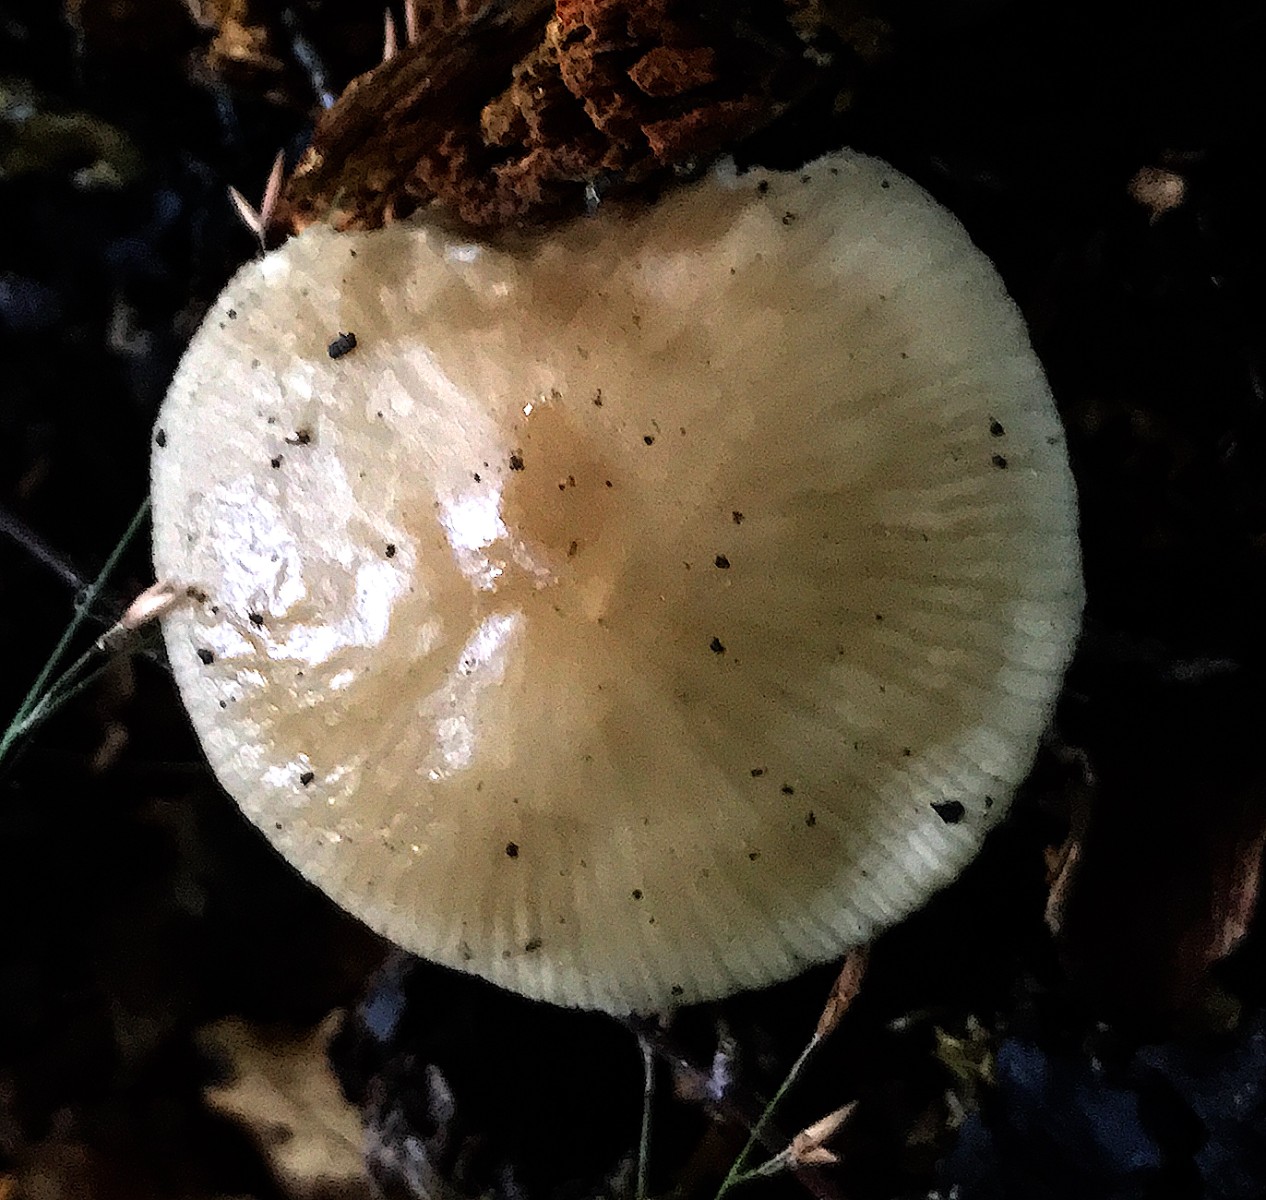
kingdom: Fungi
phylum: Basidiomycota
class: Agaricomycetes
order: Agaricales
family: Physalacriaceae
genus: Hymenopellis
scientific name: Hymenopellis radicata
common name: almindelig pælerodshat
